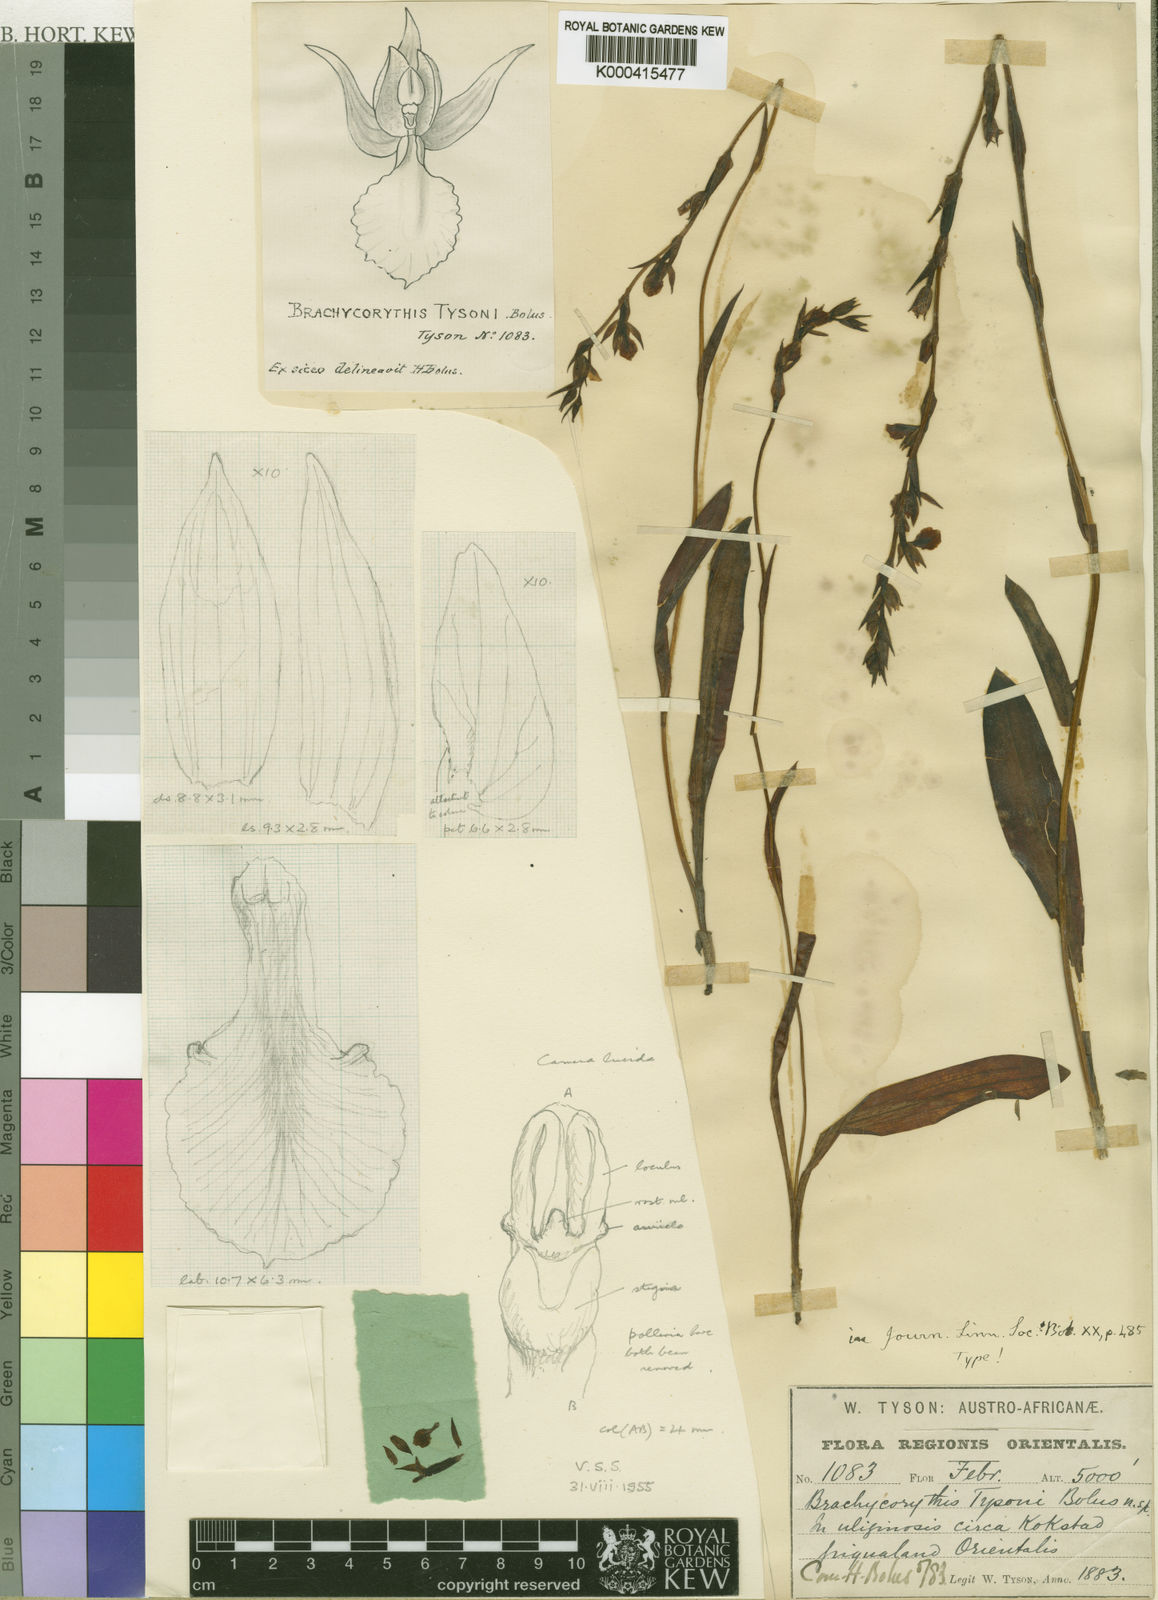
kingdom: Plantae
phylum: Tracheophyta
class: Liliopsida
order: Asparagales
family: Orchidaceae
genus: Neobolusia
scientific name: Neobolusia tysonii
